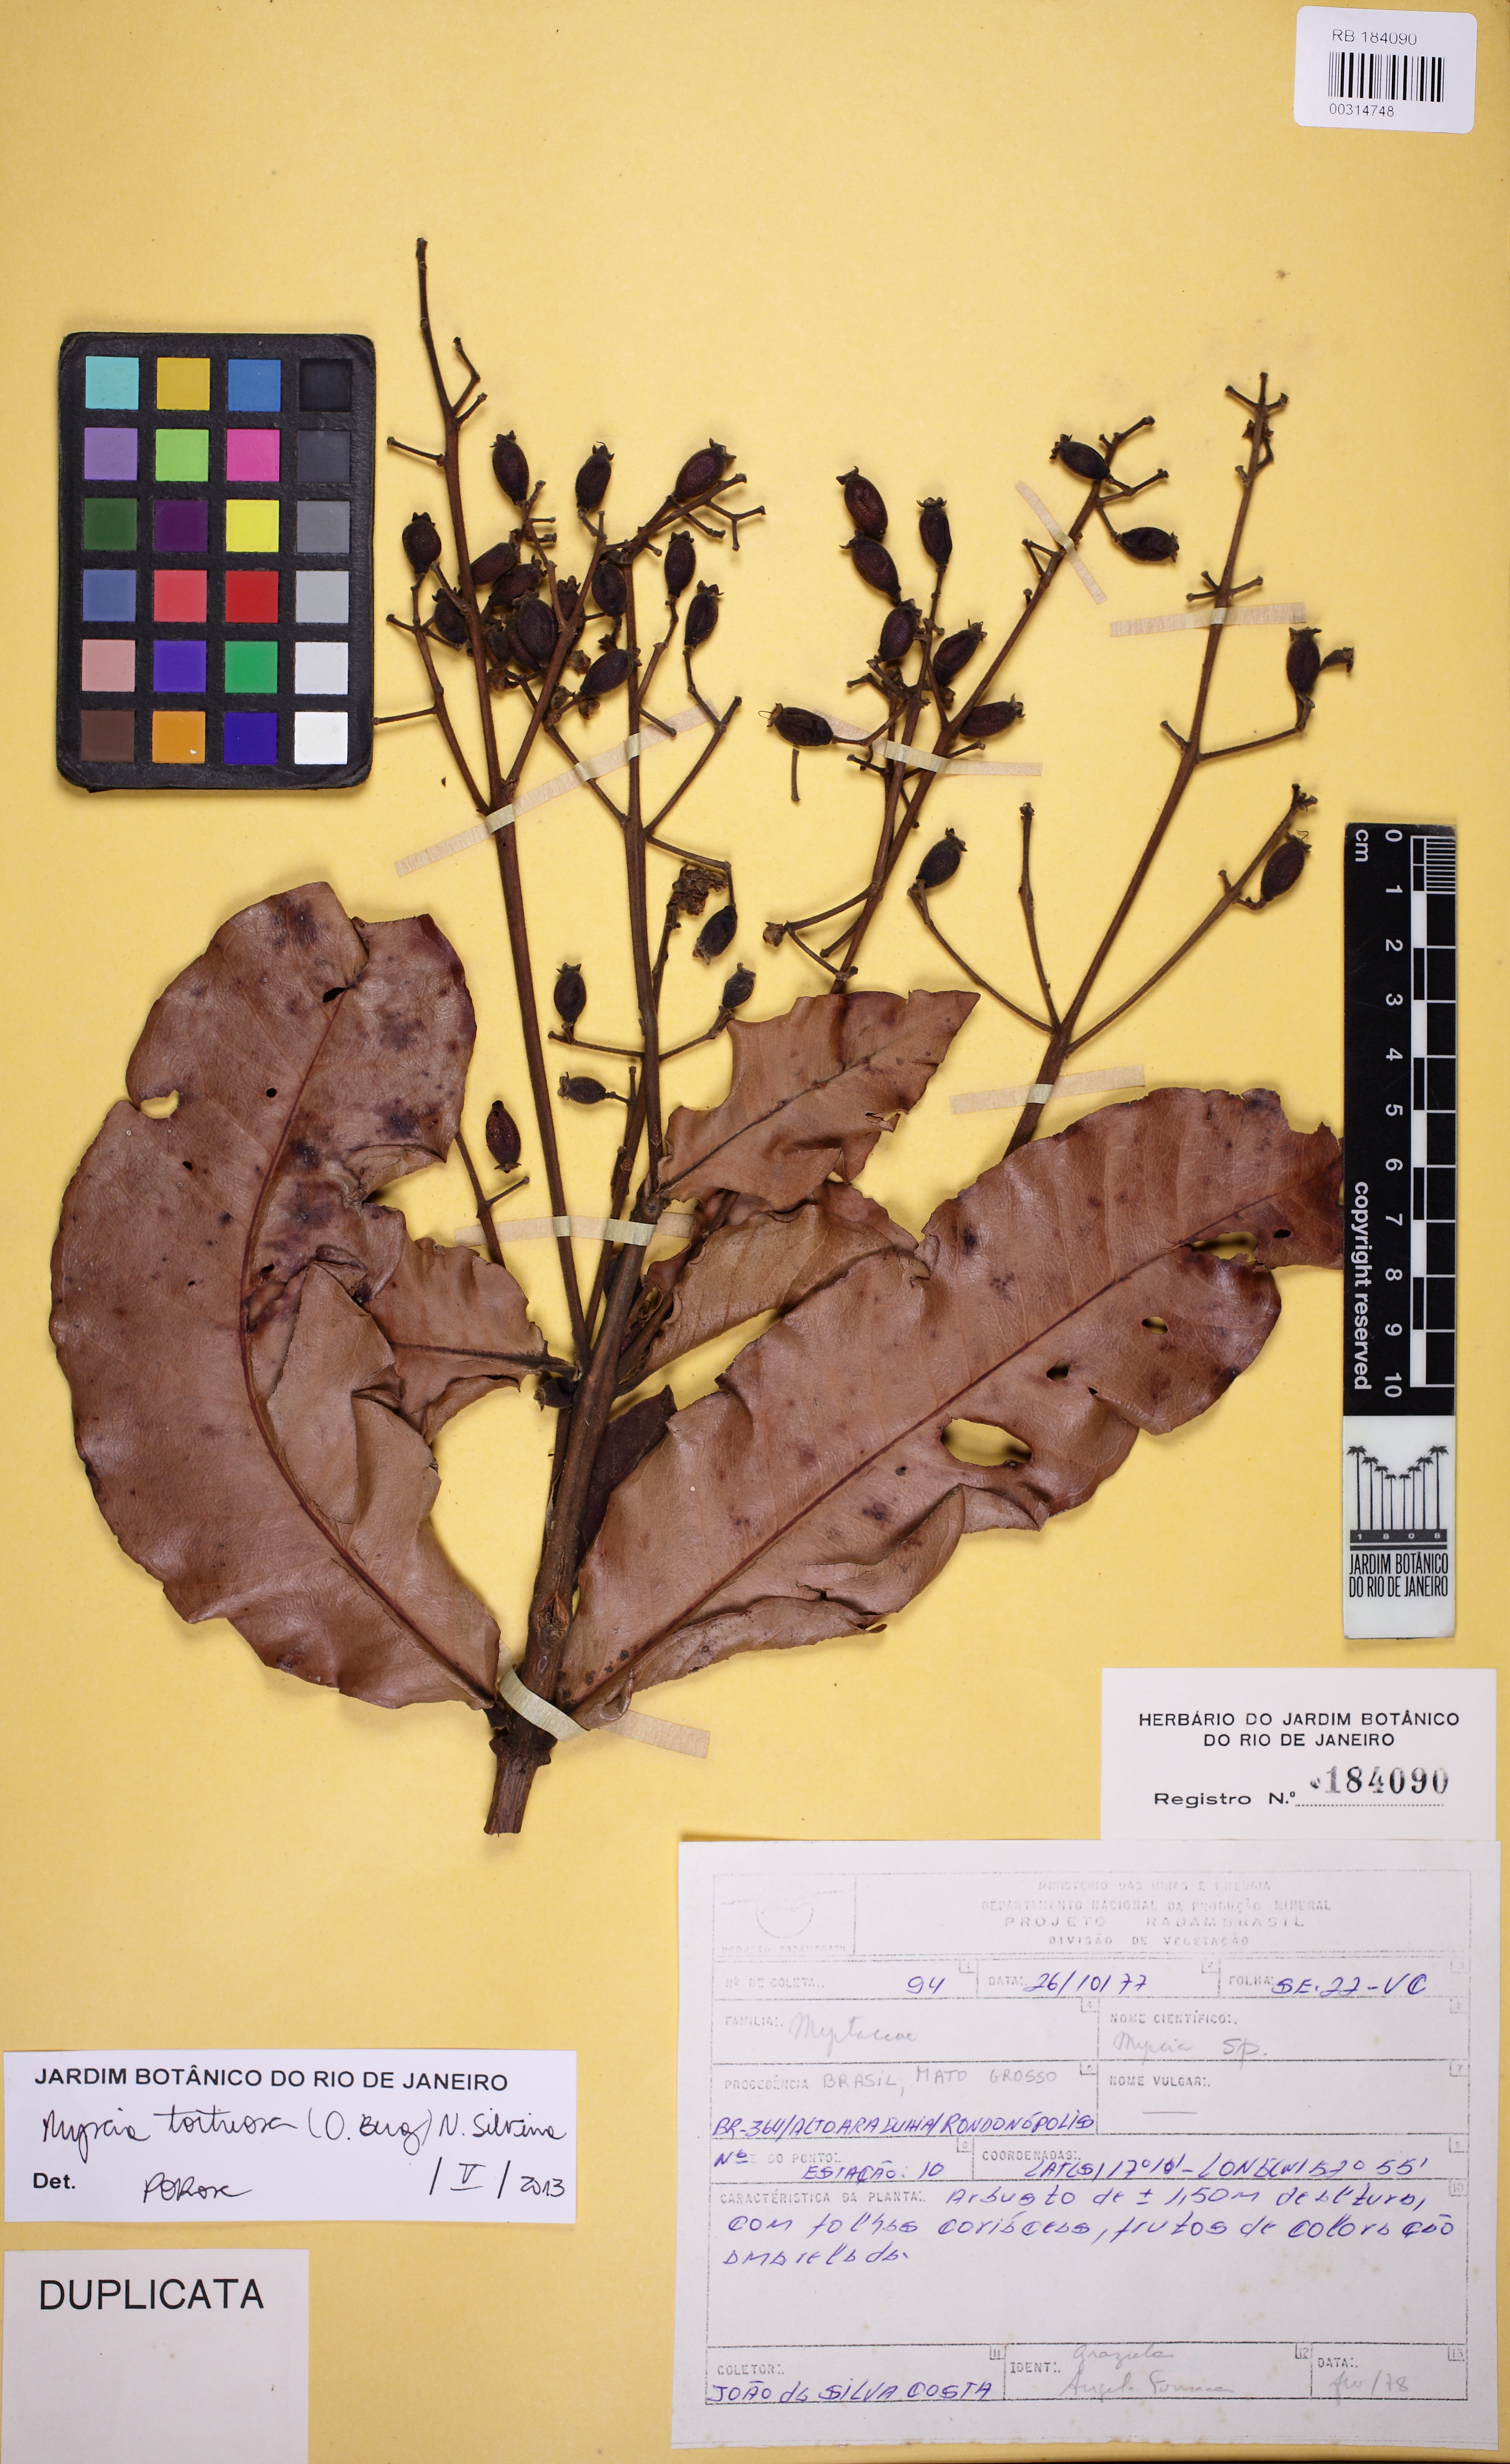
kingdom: Plantae
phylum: Tracheophyta
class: Magnoliopsida
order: Myrtales
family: Myrtaceae
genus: Myrcia
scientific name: Myrcia
